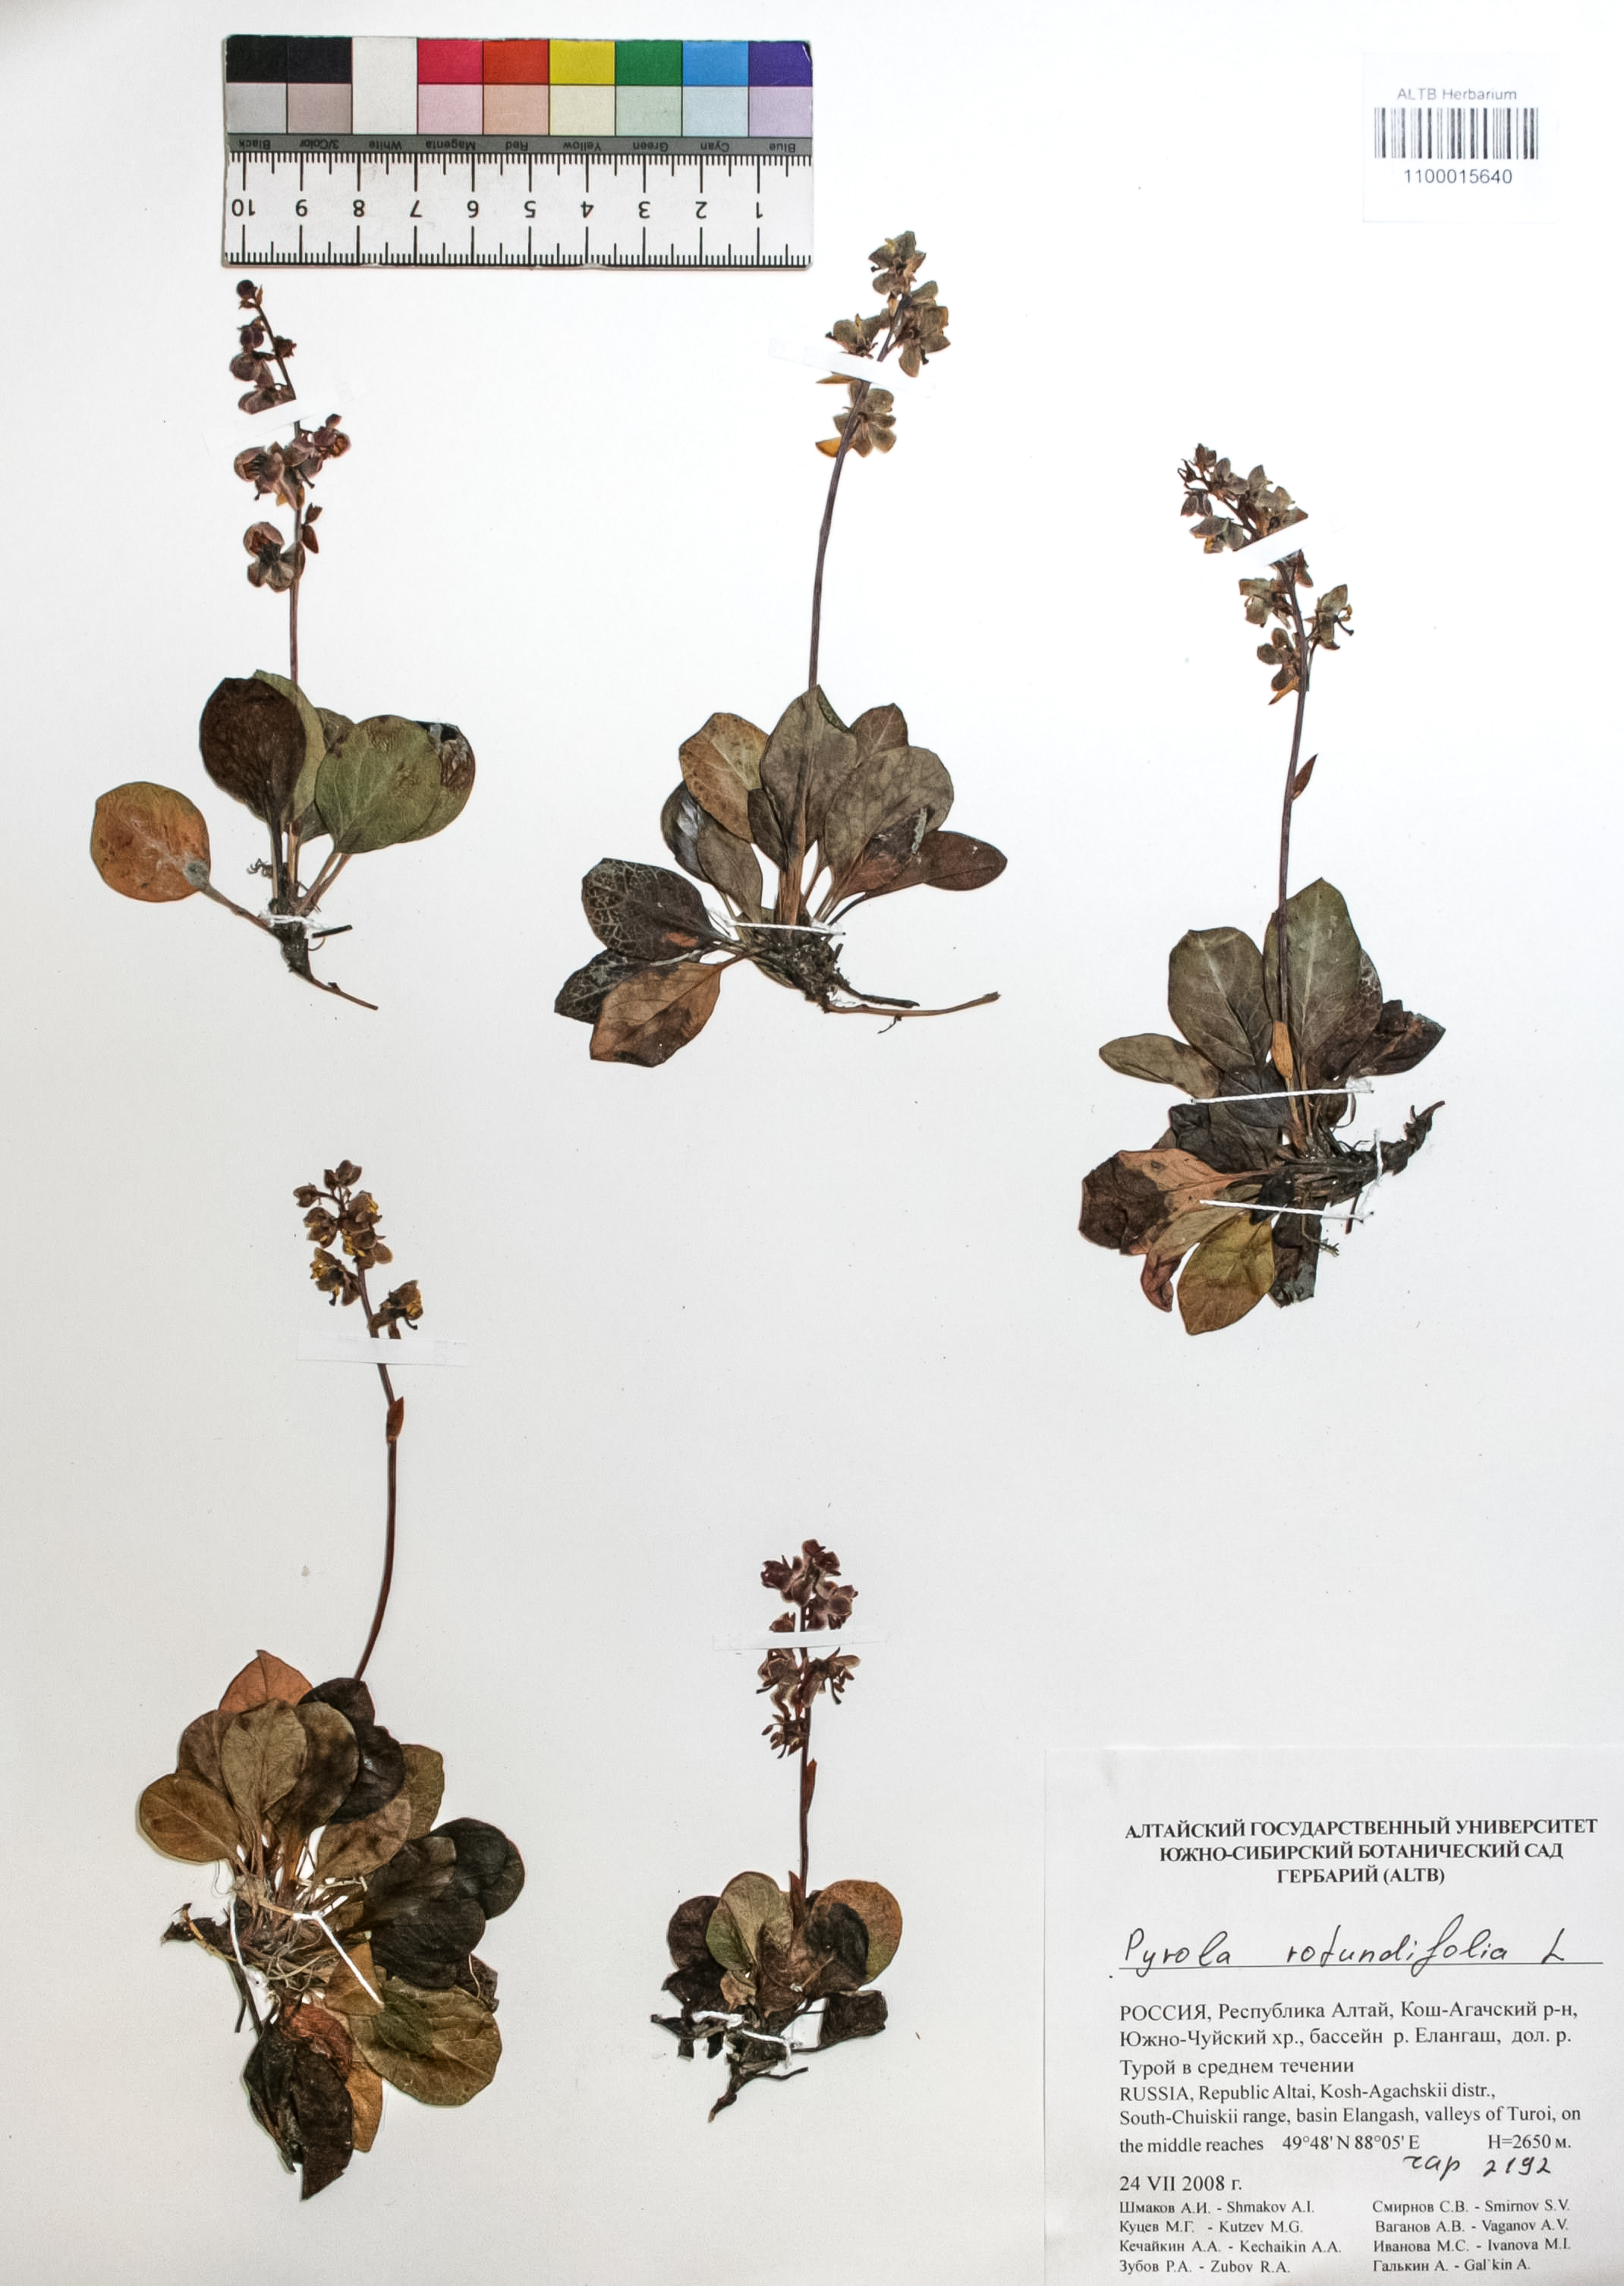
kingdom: Plantae
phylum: Tracheophyta
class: Magnoliopsida
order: Ericales
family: Ericaceae
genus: Pyrola
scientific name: Pyrola rotundifolia
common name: Round-leaved wintergreen
